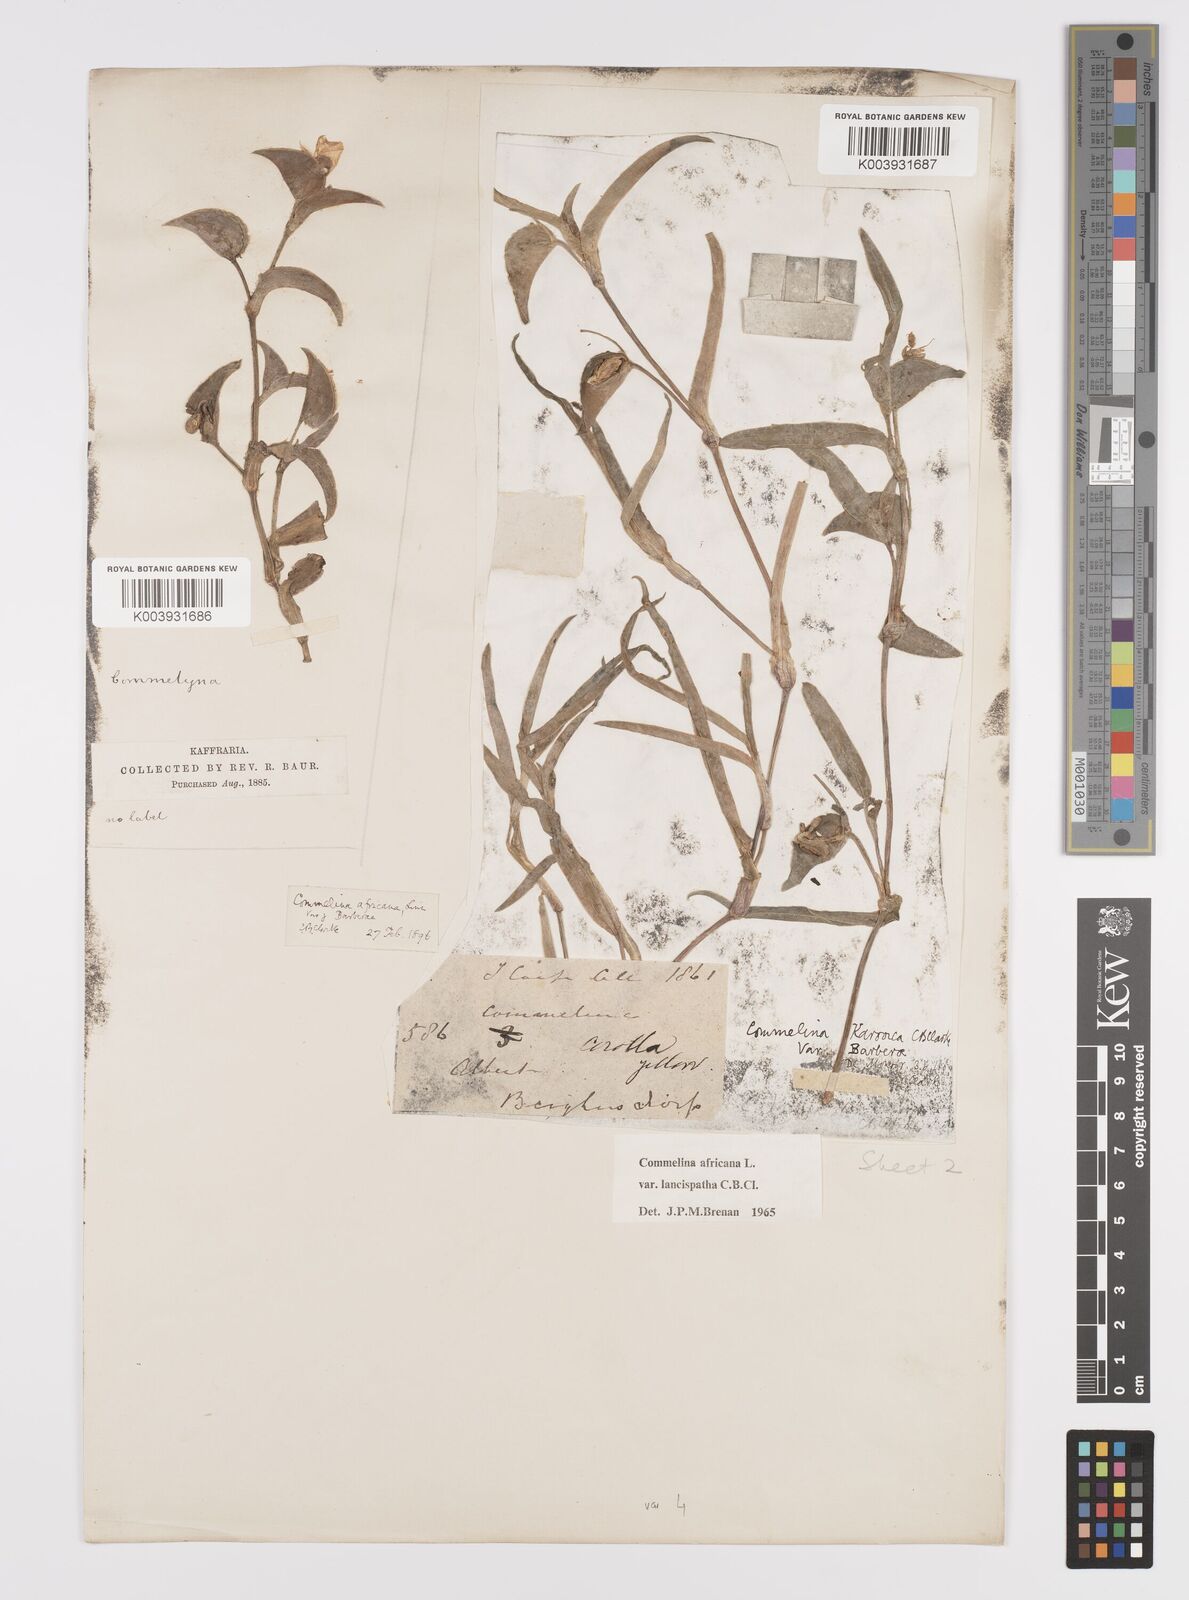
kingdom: Plantae
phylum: Tracheophyta
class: Liliopsida
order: Commelinales
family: Commelinaceae
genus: Commelina
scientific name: Commelina africana
